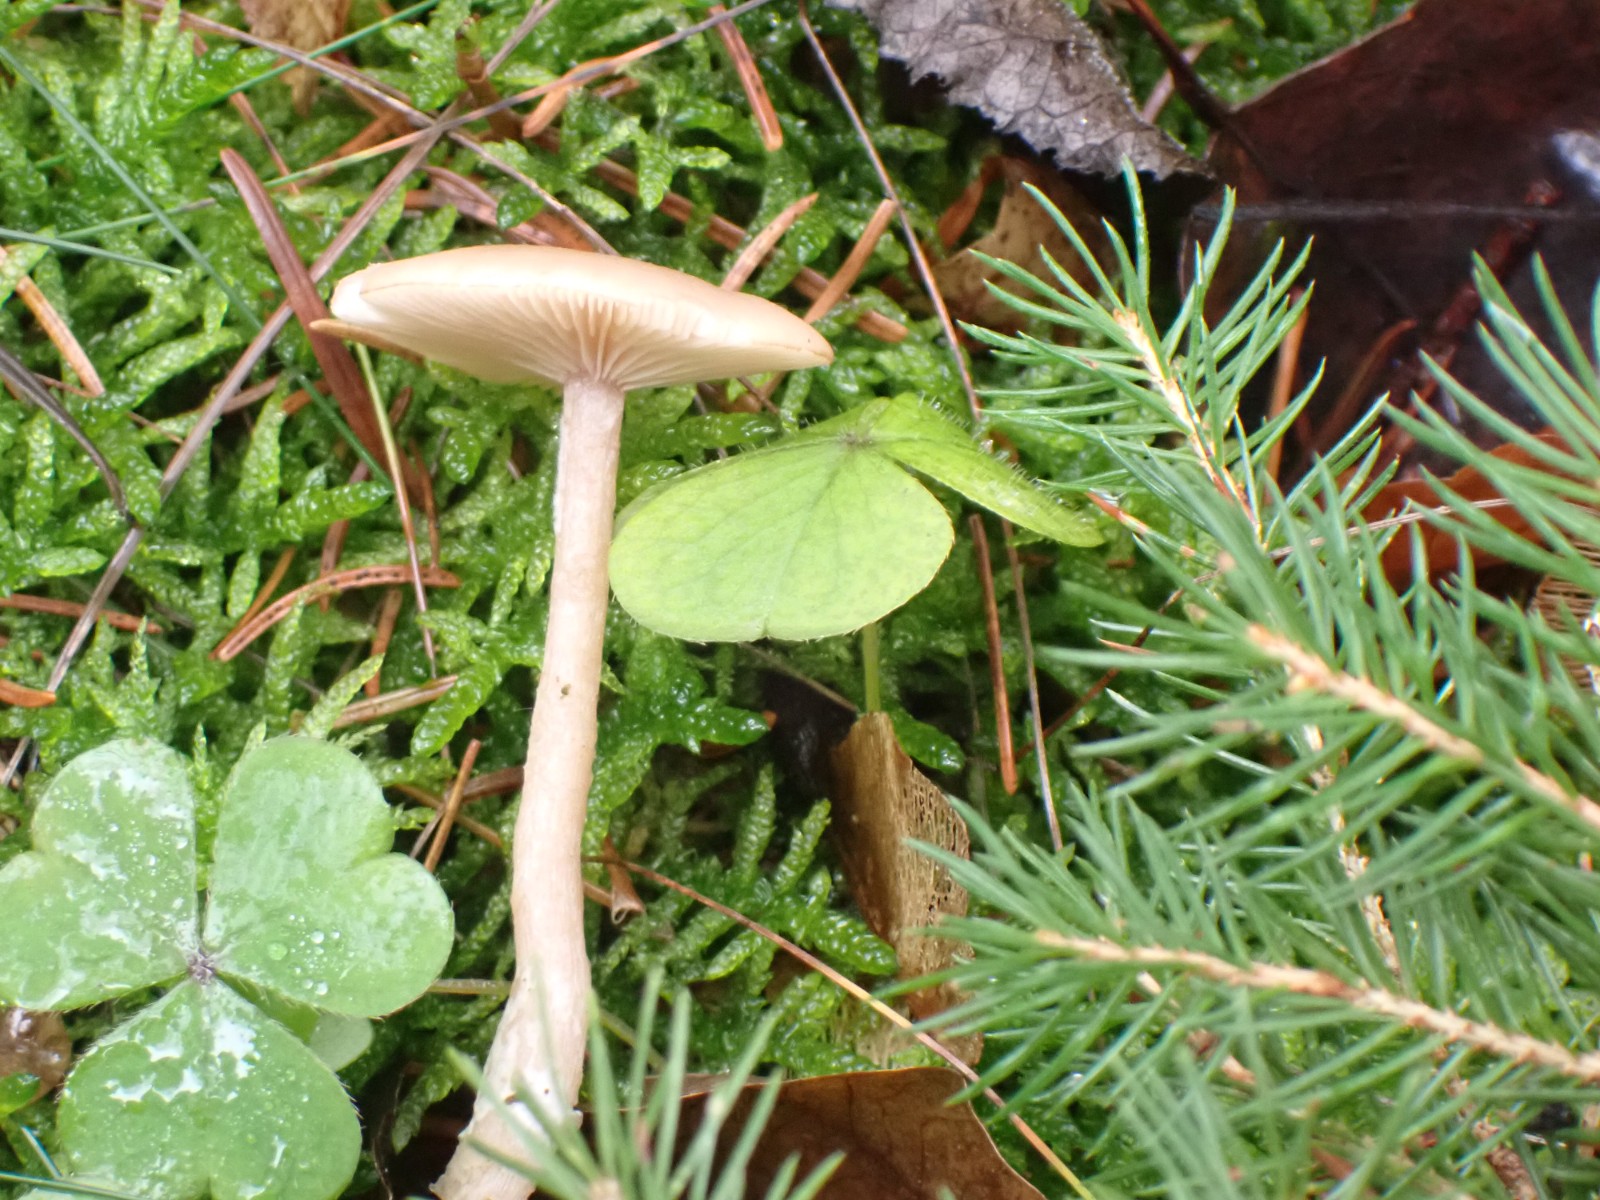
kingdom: Fungi
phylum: Basidiomycota
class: Agaricomycetes
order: Agaricales
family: Tricholomataceae
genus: Clitocybe
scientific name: Clitocybe fragrans
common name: vellugtende tragthat
